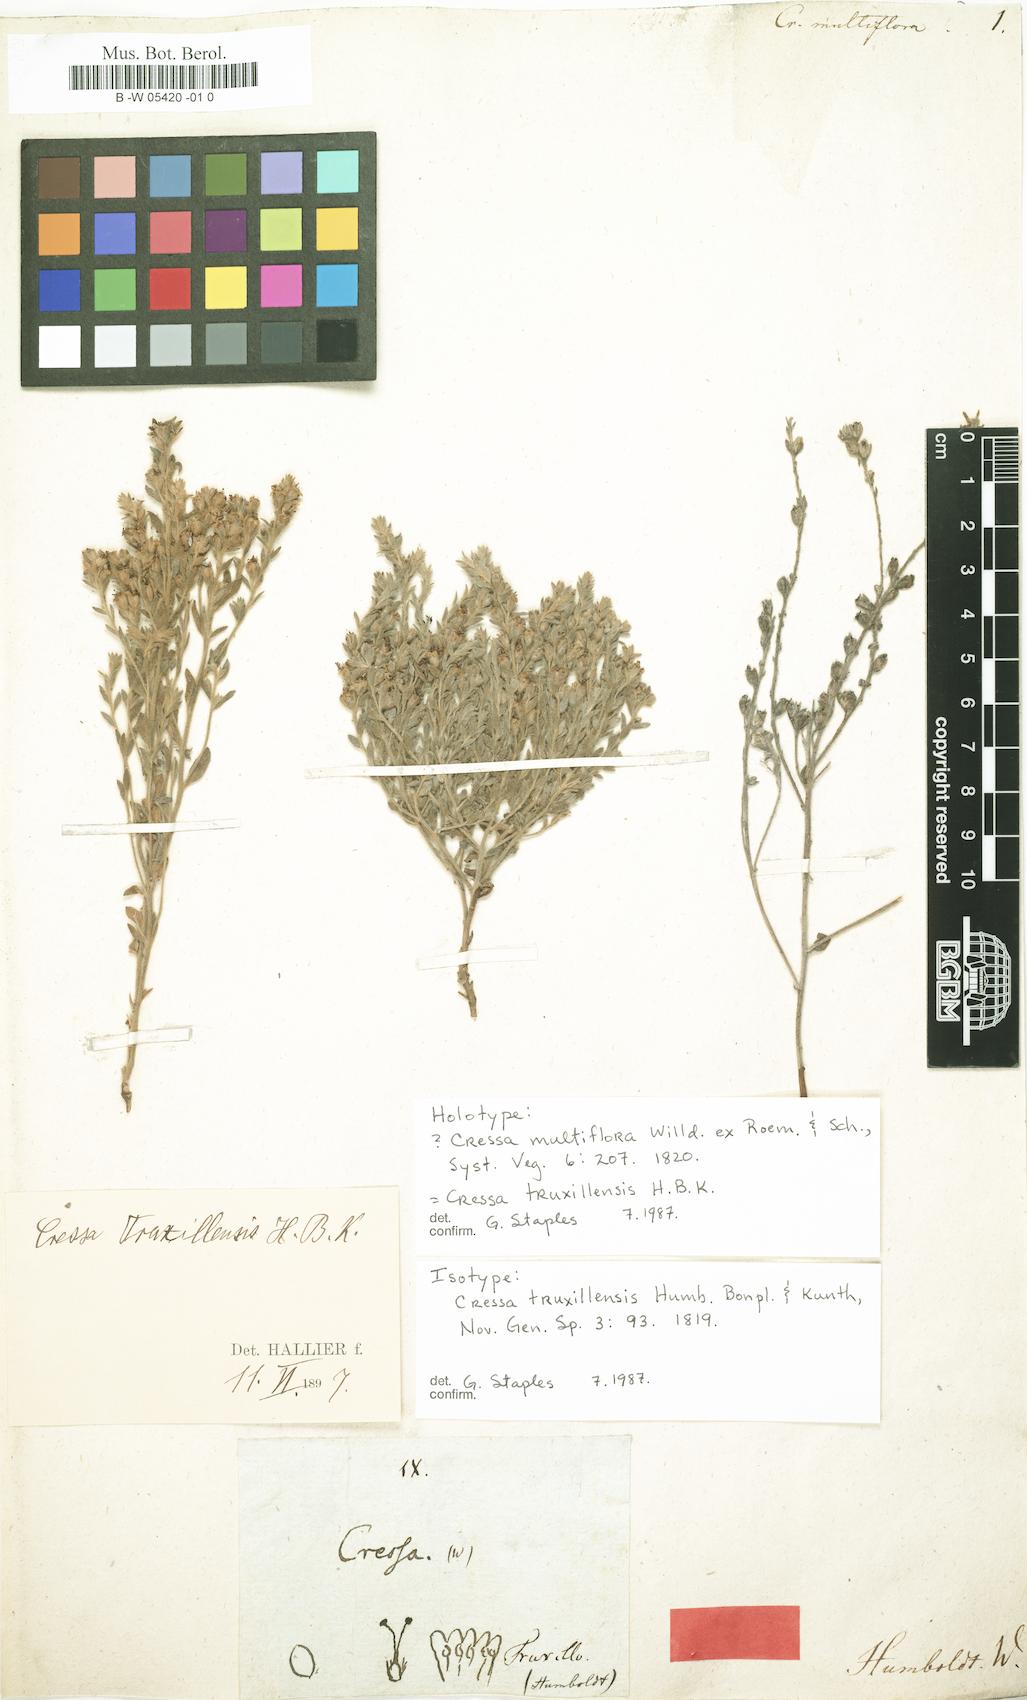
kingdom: Plantae
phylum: Tracheophyta
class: Magnoliopsida
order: Solanales
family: Convolvulaceae
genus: Cressa
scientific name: Cressa truxillensis
